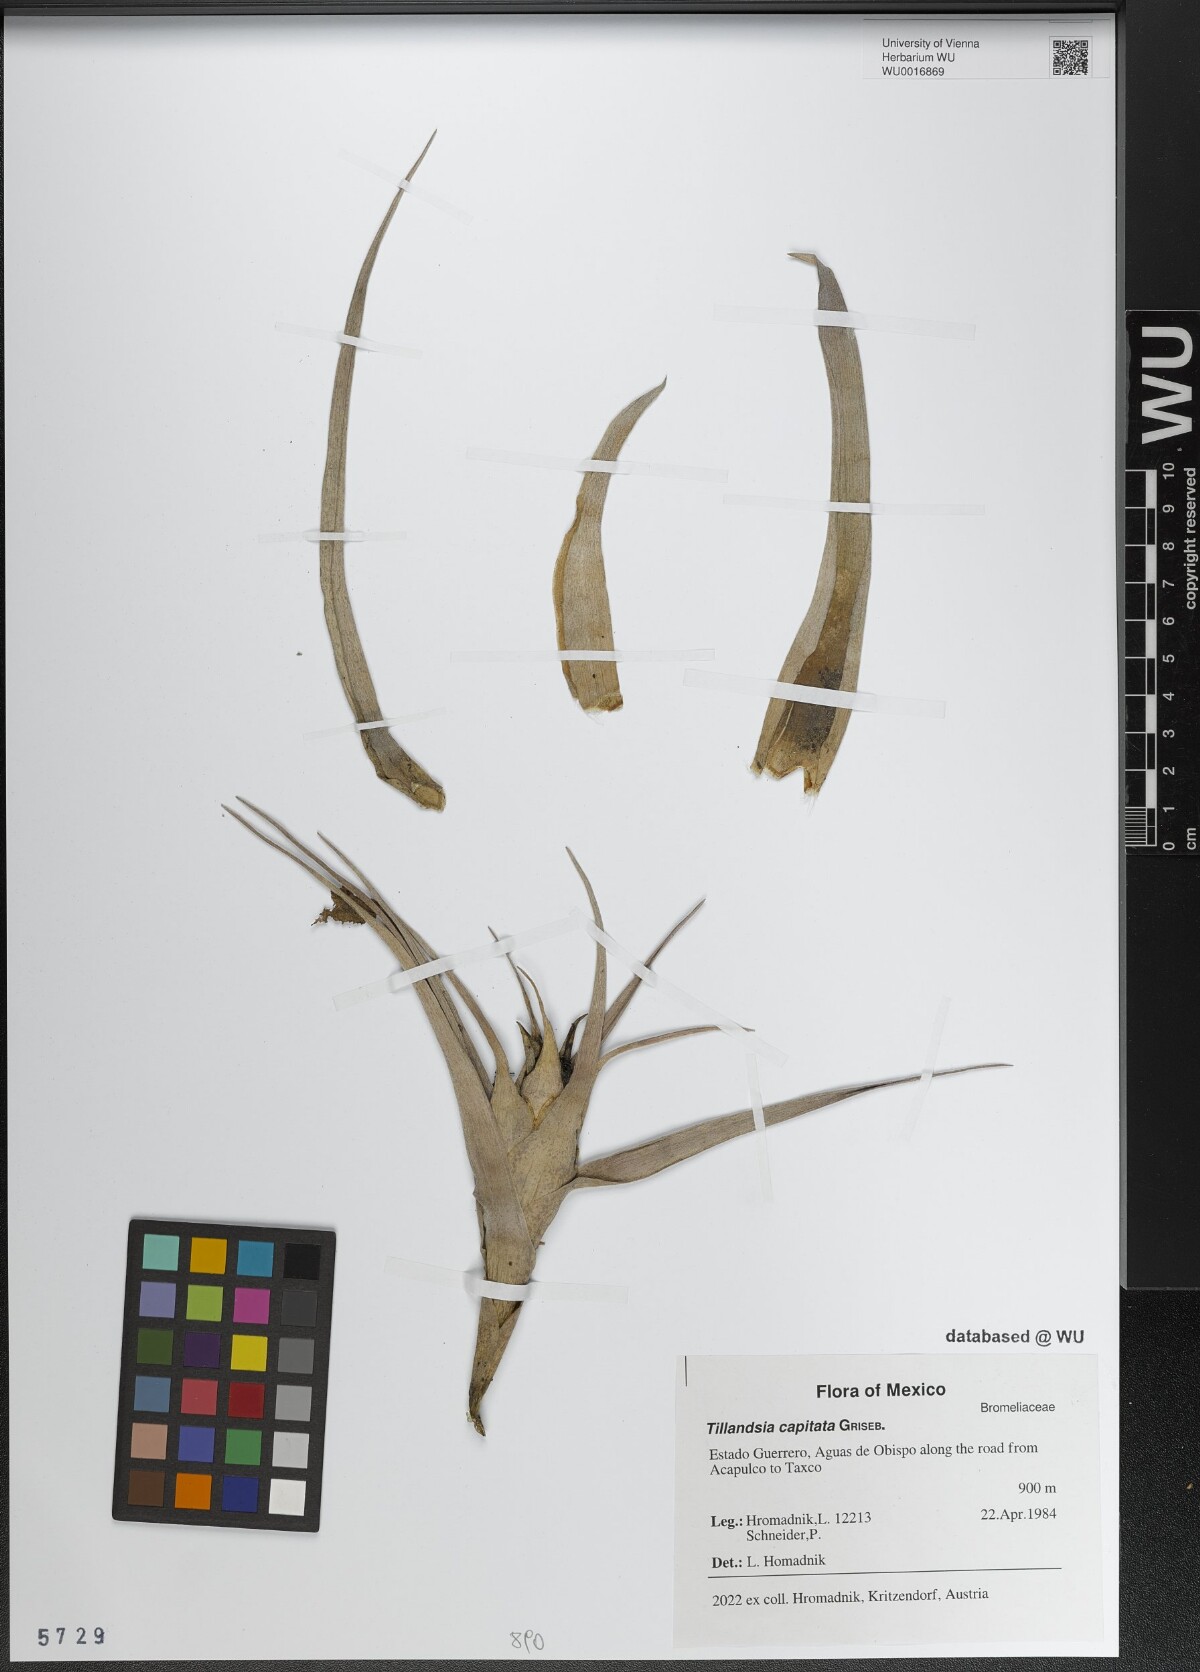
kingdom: Plantae
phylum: Tracheophyta
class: Liliopsida
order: Poales
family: Bromeliaceae
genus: Tillandsia
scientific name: Tillandsia capitata
